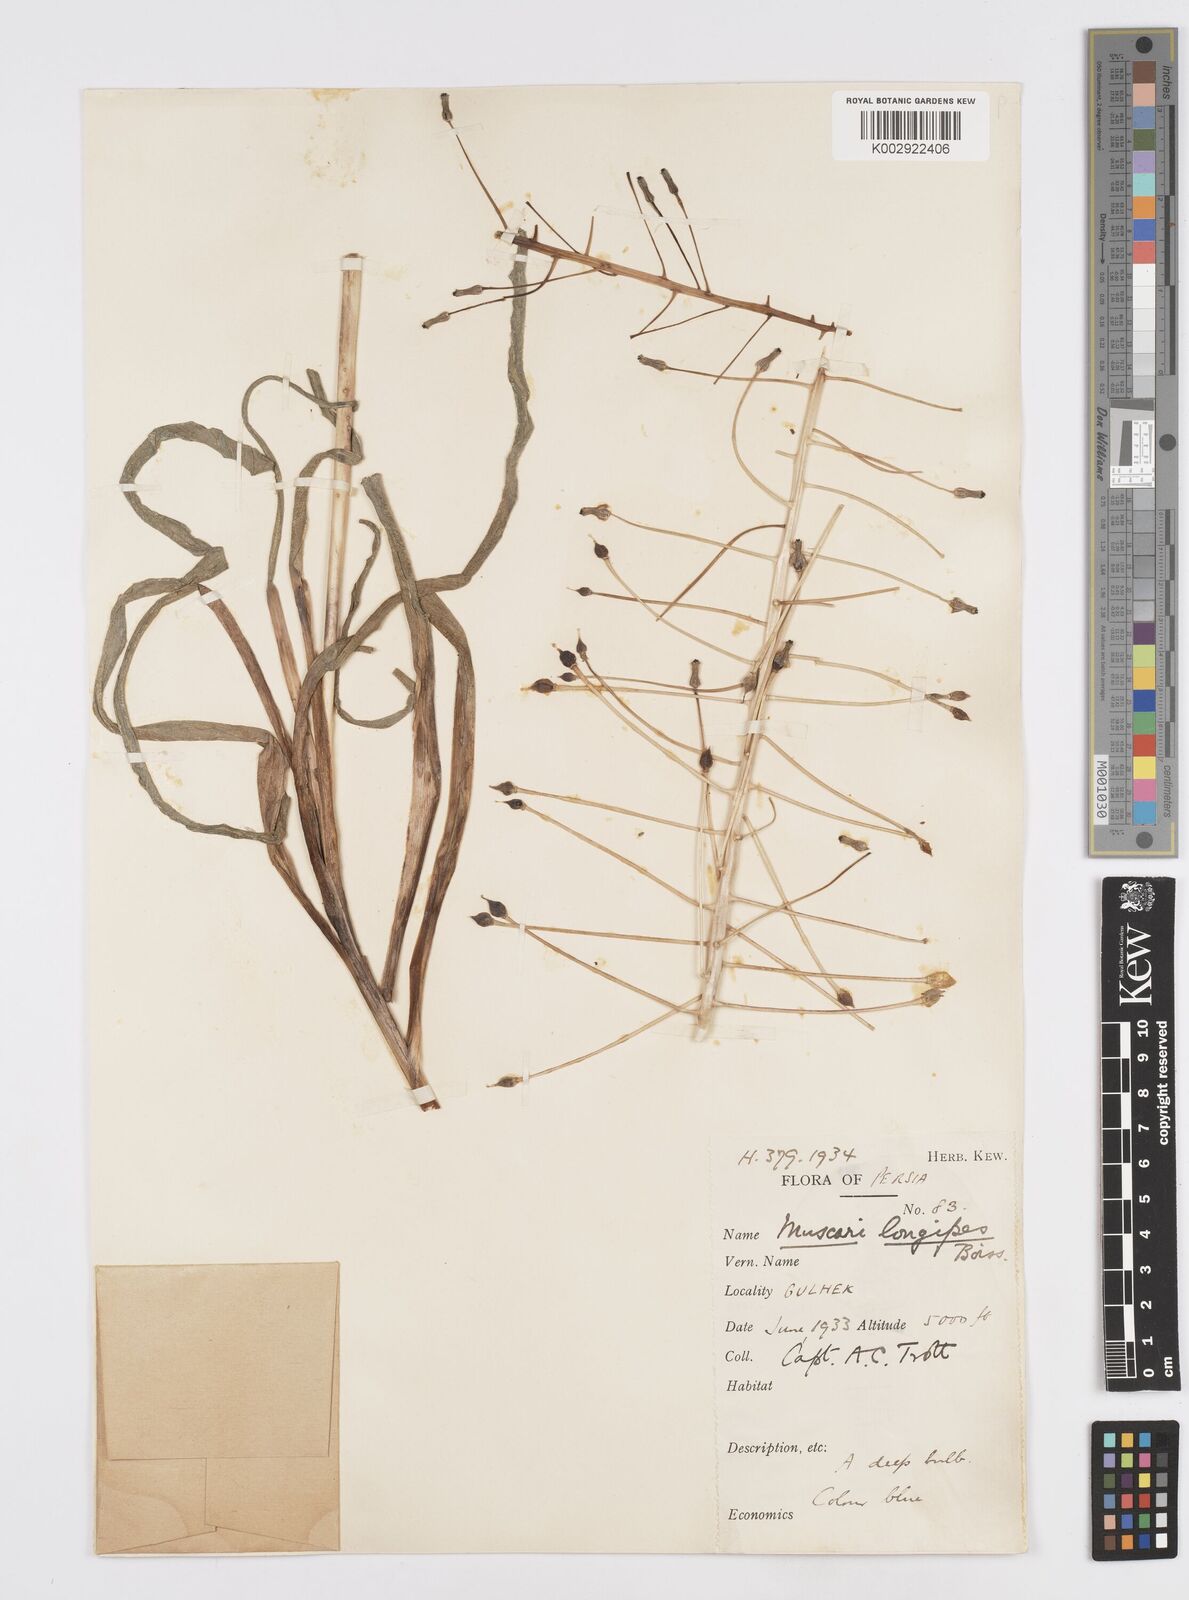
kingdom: Plantae
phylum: Tracheophyta
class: Liliopsida
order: Asparagales
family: Asparagaceae
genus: Muscari
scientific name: Muscari longipes
